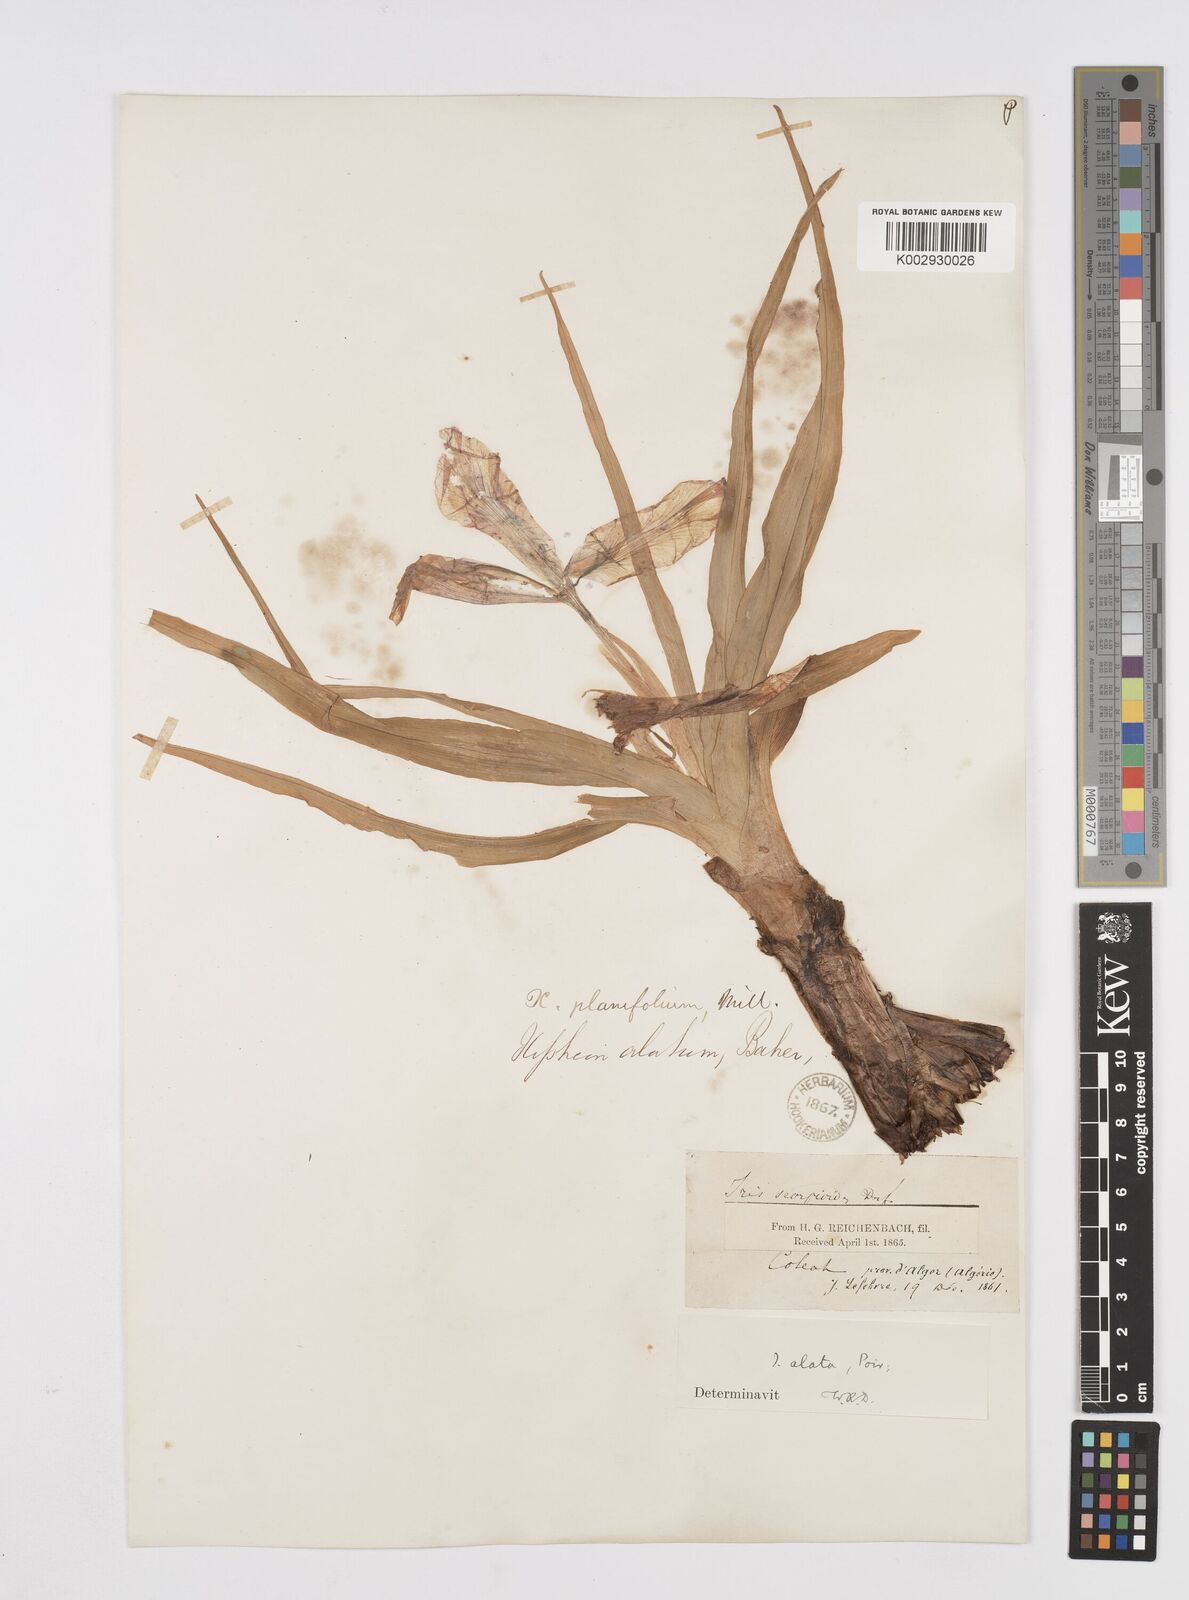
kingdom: Plantae
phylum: Tracheophyta
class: Liliopsida
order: Asparagales
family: Iridaceae
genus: Iris
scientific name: Iris planifolia
